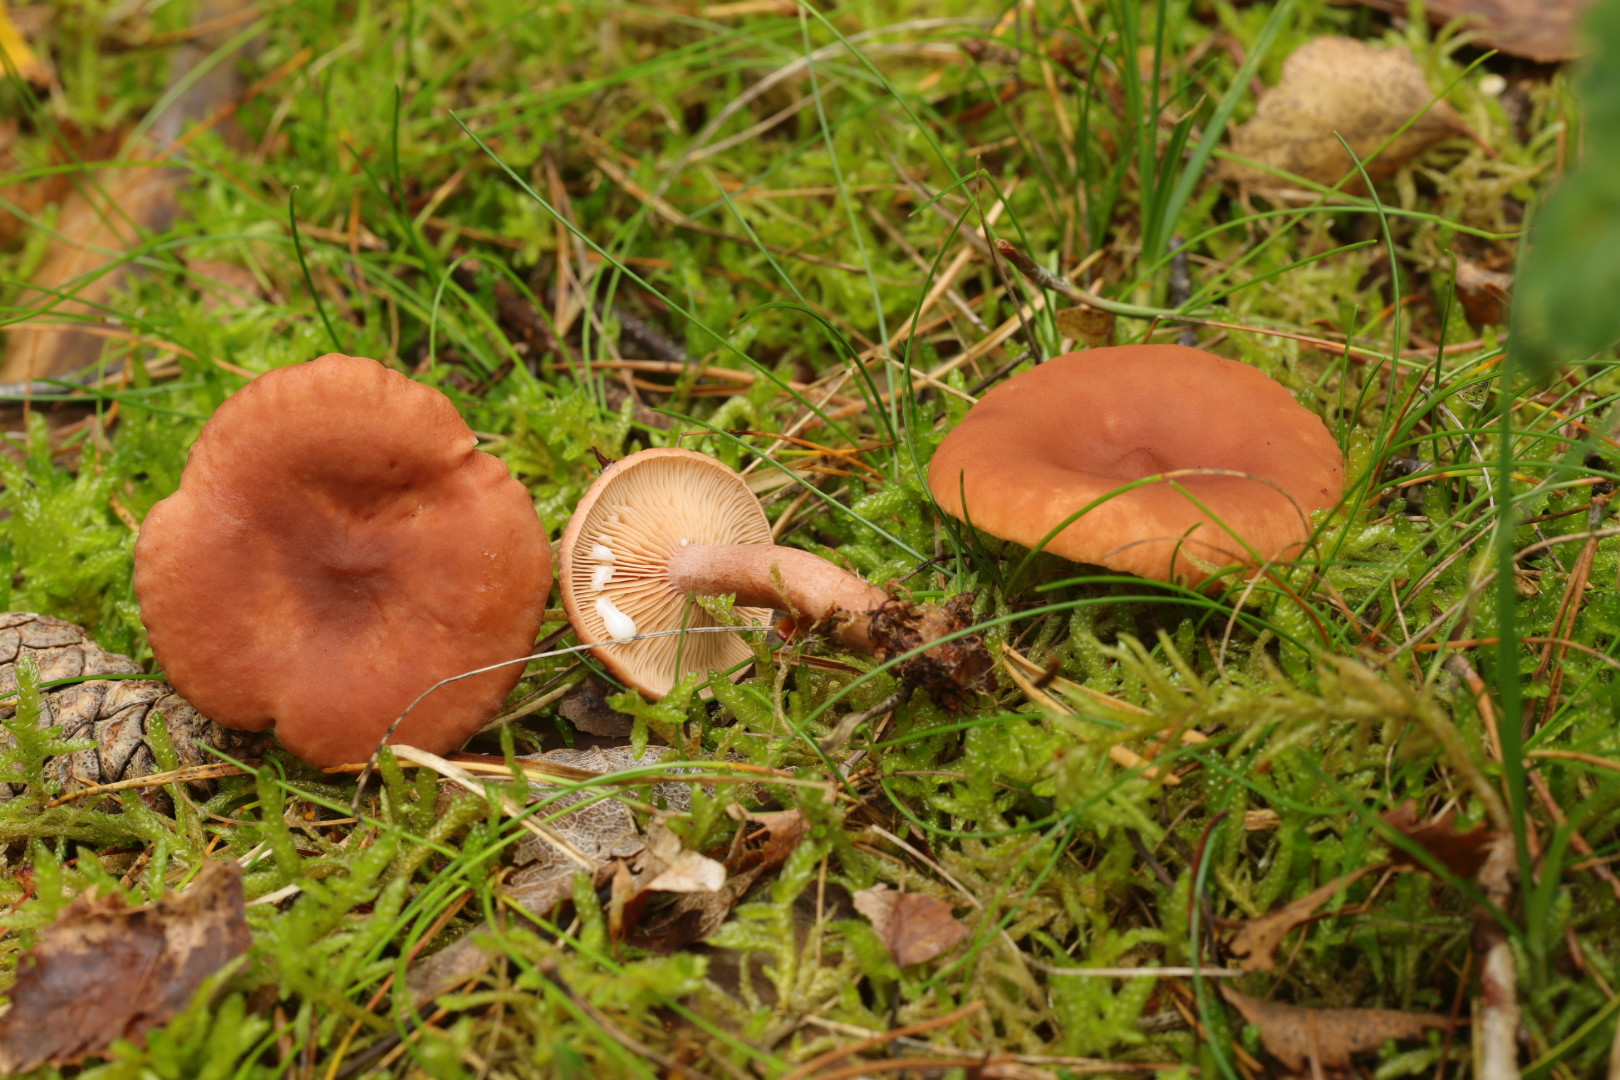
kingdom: Fungi
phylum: Basidiomycota
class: Agaricomycetes
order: Russulales
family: Russulaceae
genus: Lactarius
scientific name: Lactarius camphoratus
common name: kamfer-mælkehat
